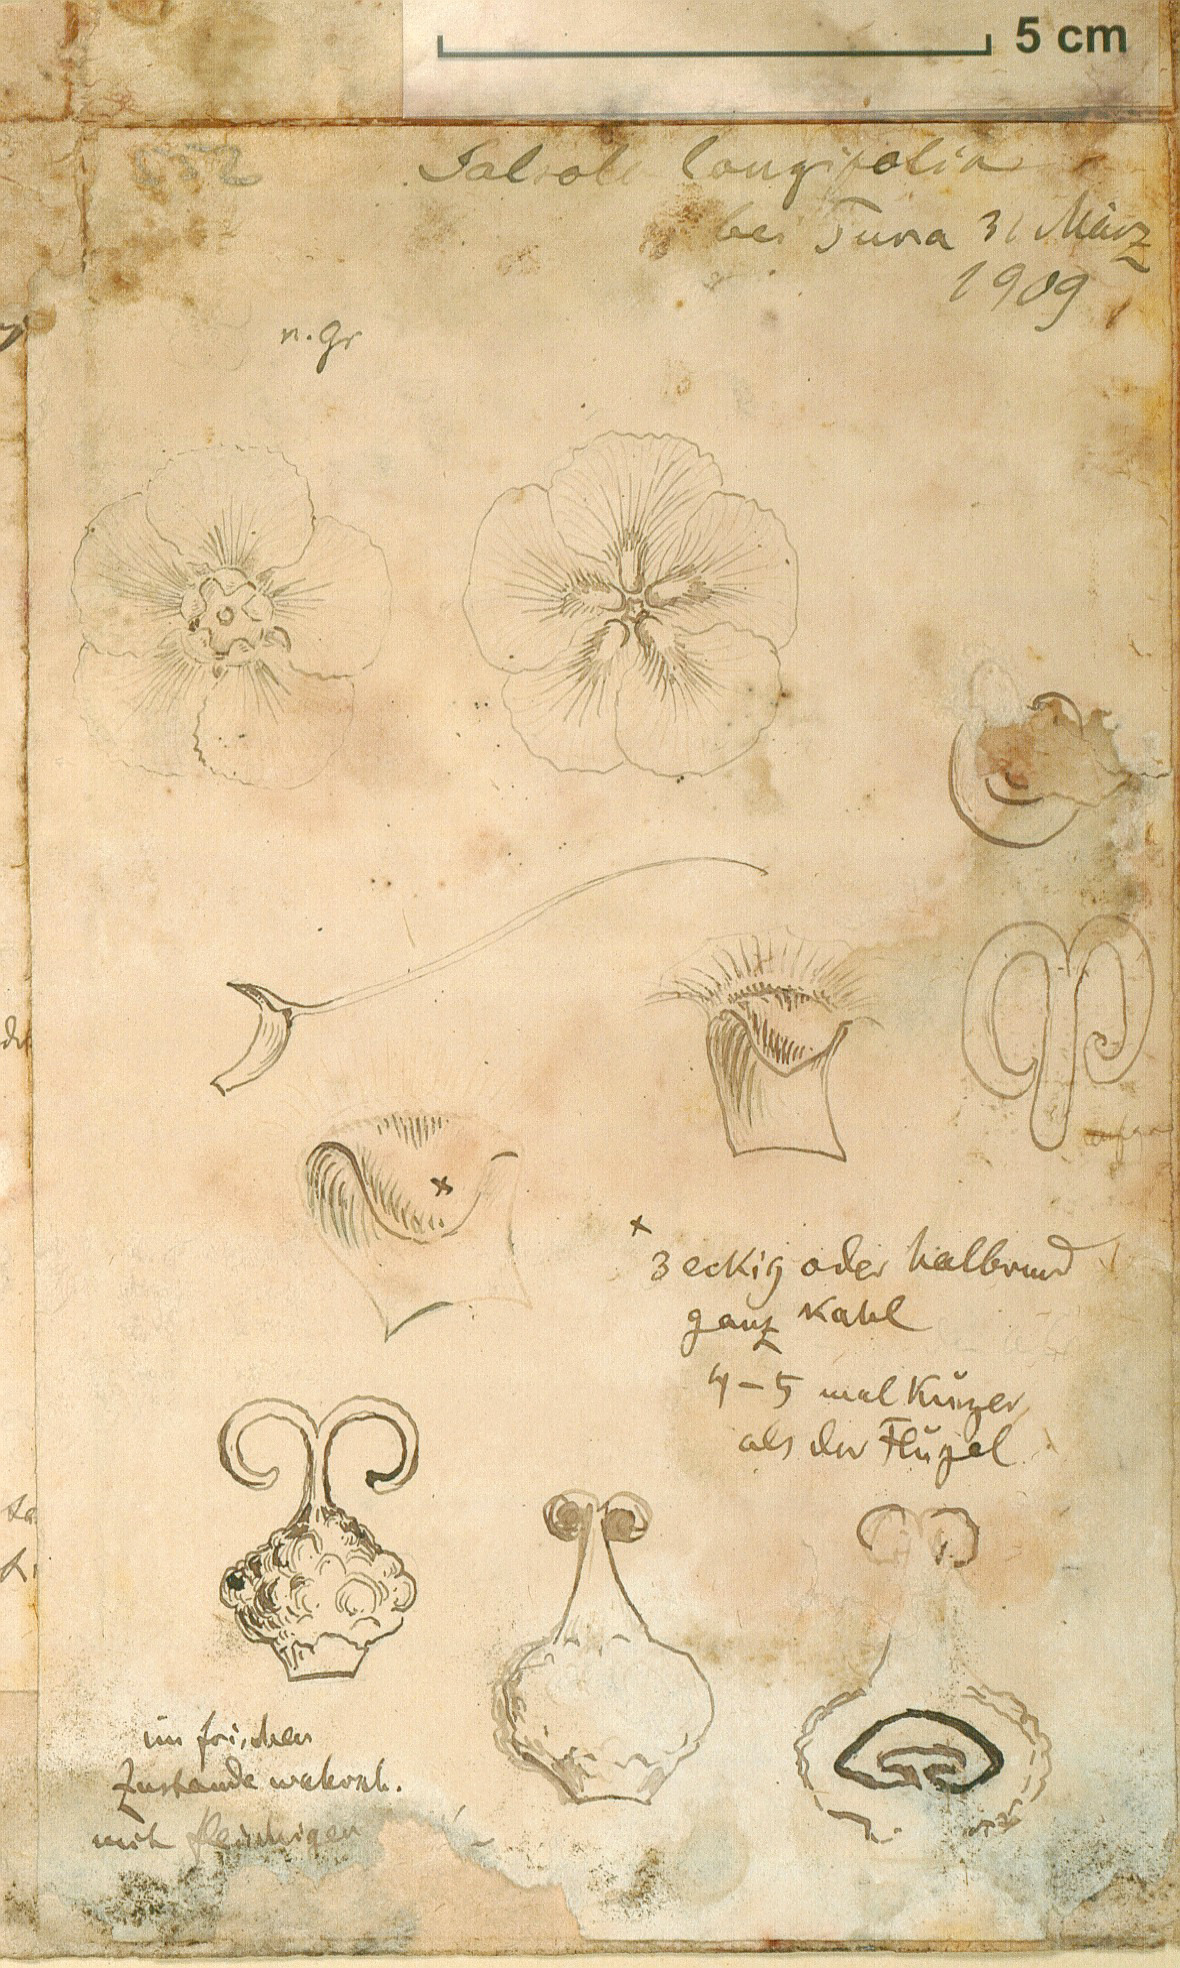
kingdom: Plantae
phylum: Tracheophyta
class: Magnoliopsida
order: Caryophyllales
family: Amaranthaceae
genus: Soda
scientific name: Soda
